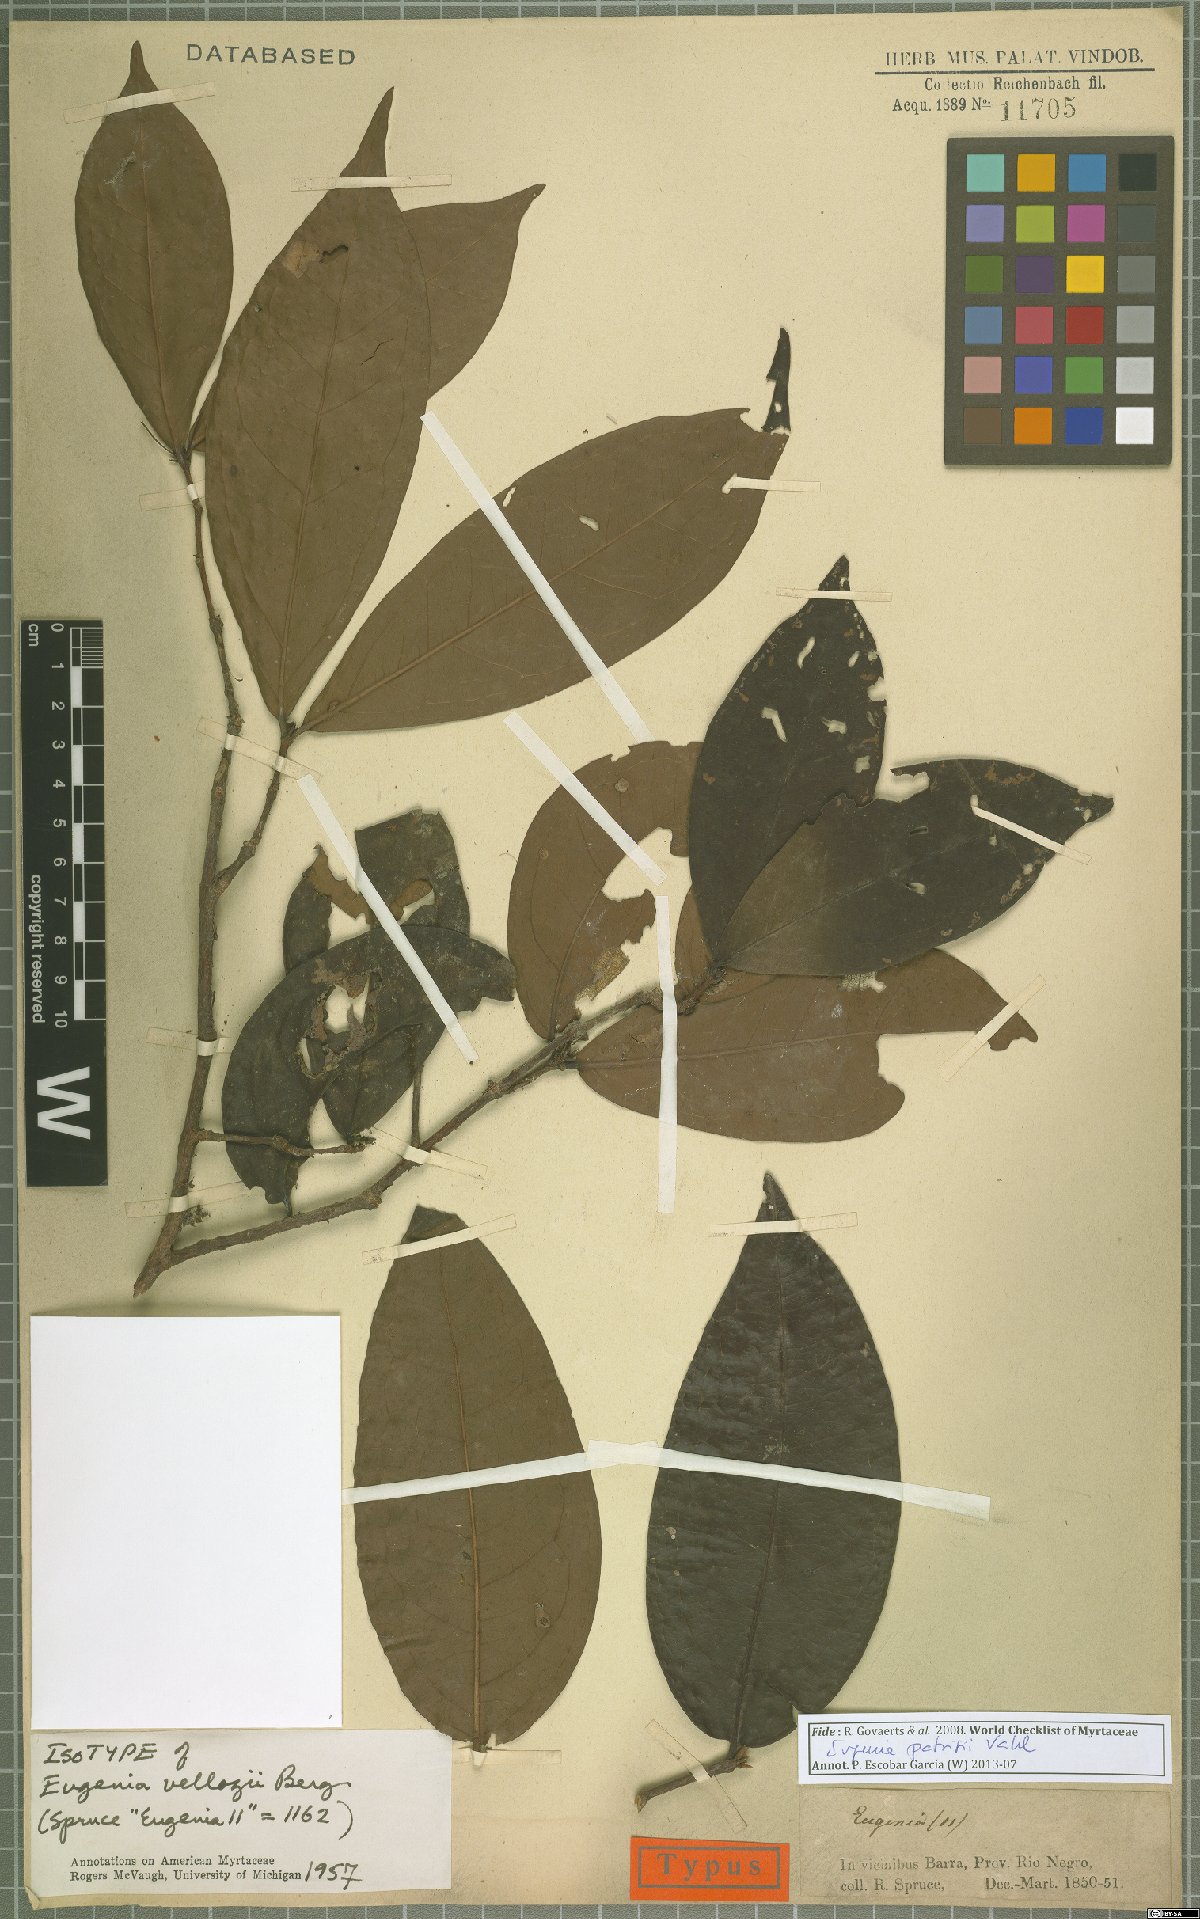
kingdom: Plantae
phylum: Tracheophyta
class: Magnoliopsida
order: Myrtales
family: Myrtaceae
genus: Eugenia
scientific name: Eugenia patrisii
